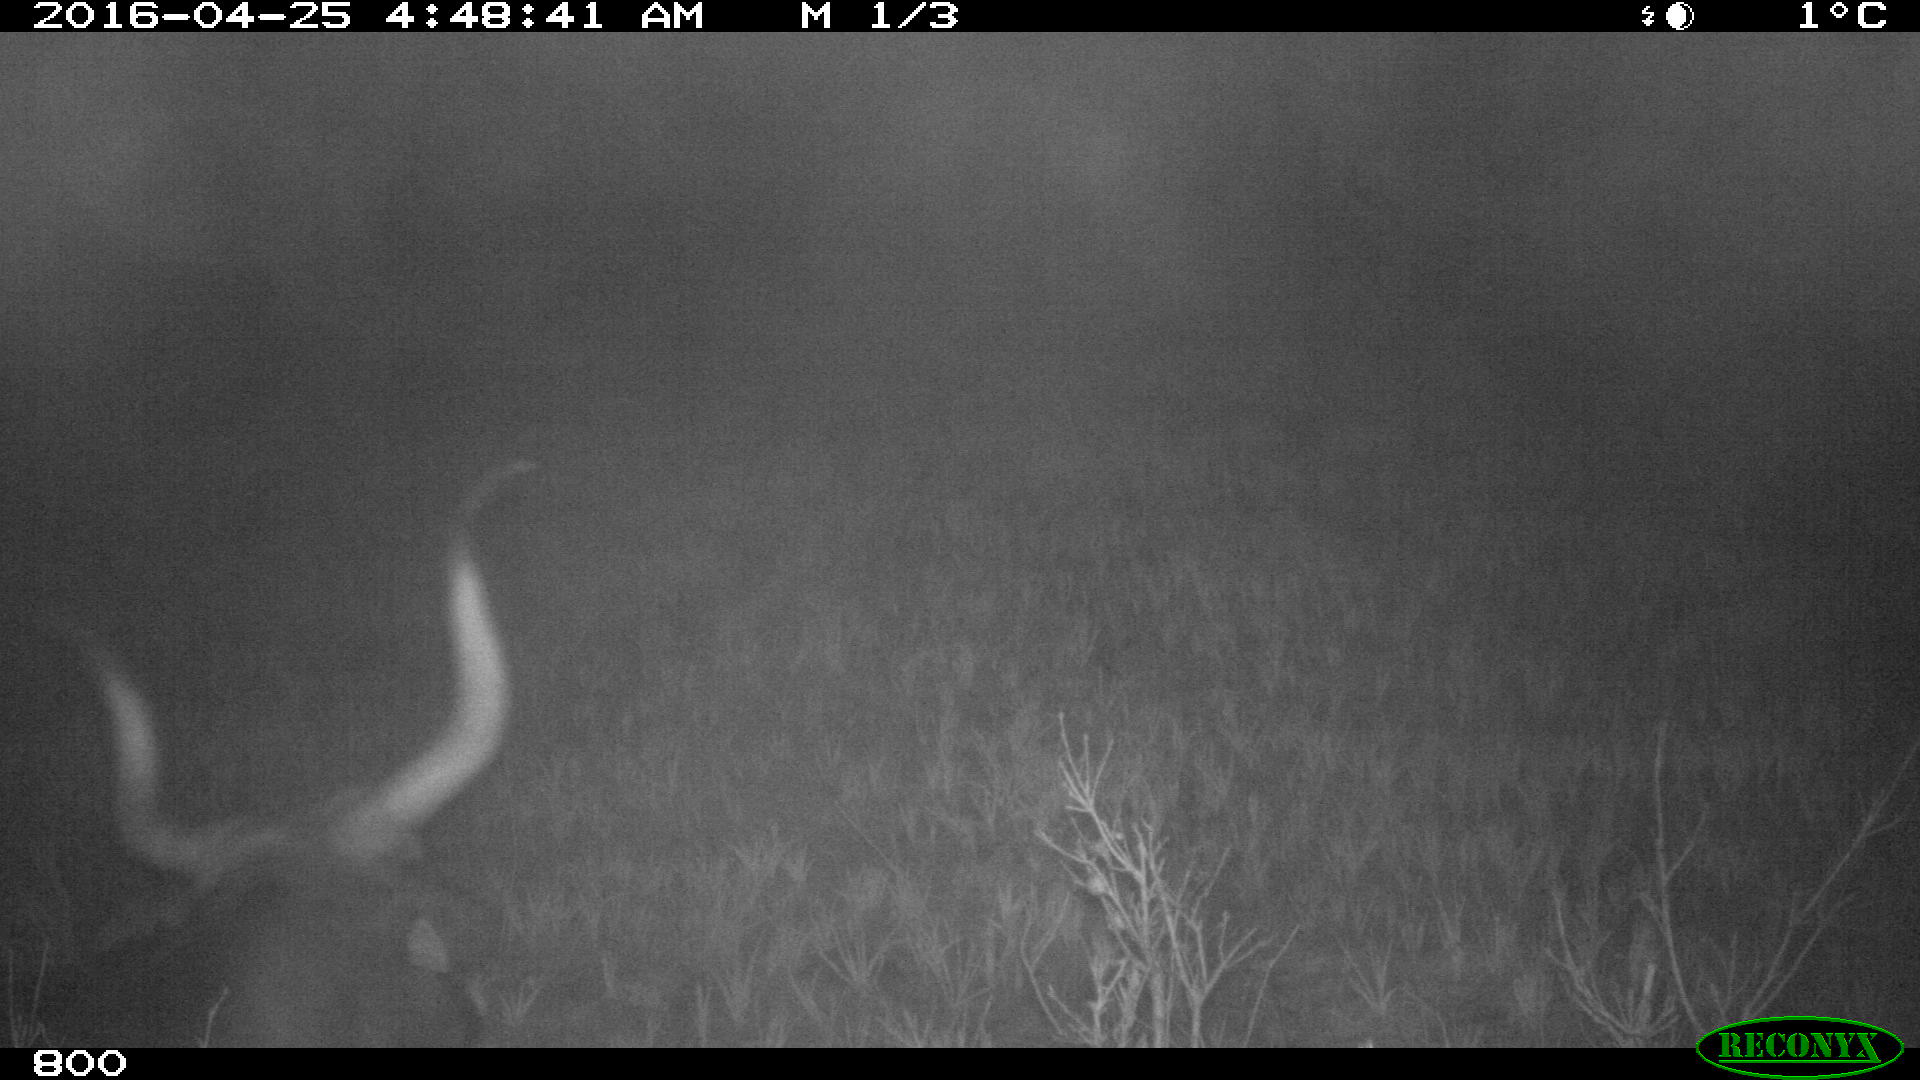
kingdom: Animalia
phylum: Chordata
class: Mammalia
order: Artiodactyla
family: Bovidae
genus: Bos
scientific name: Bos taurus
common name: Domesticated cattle
